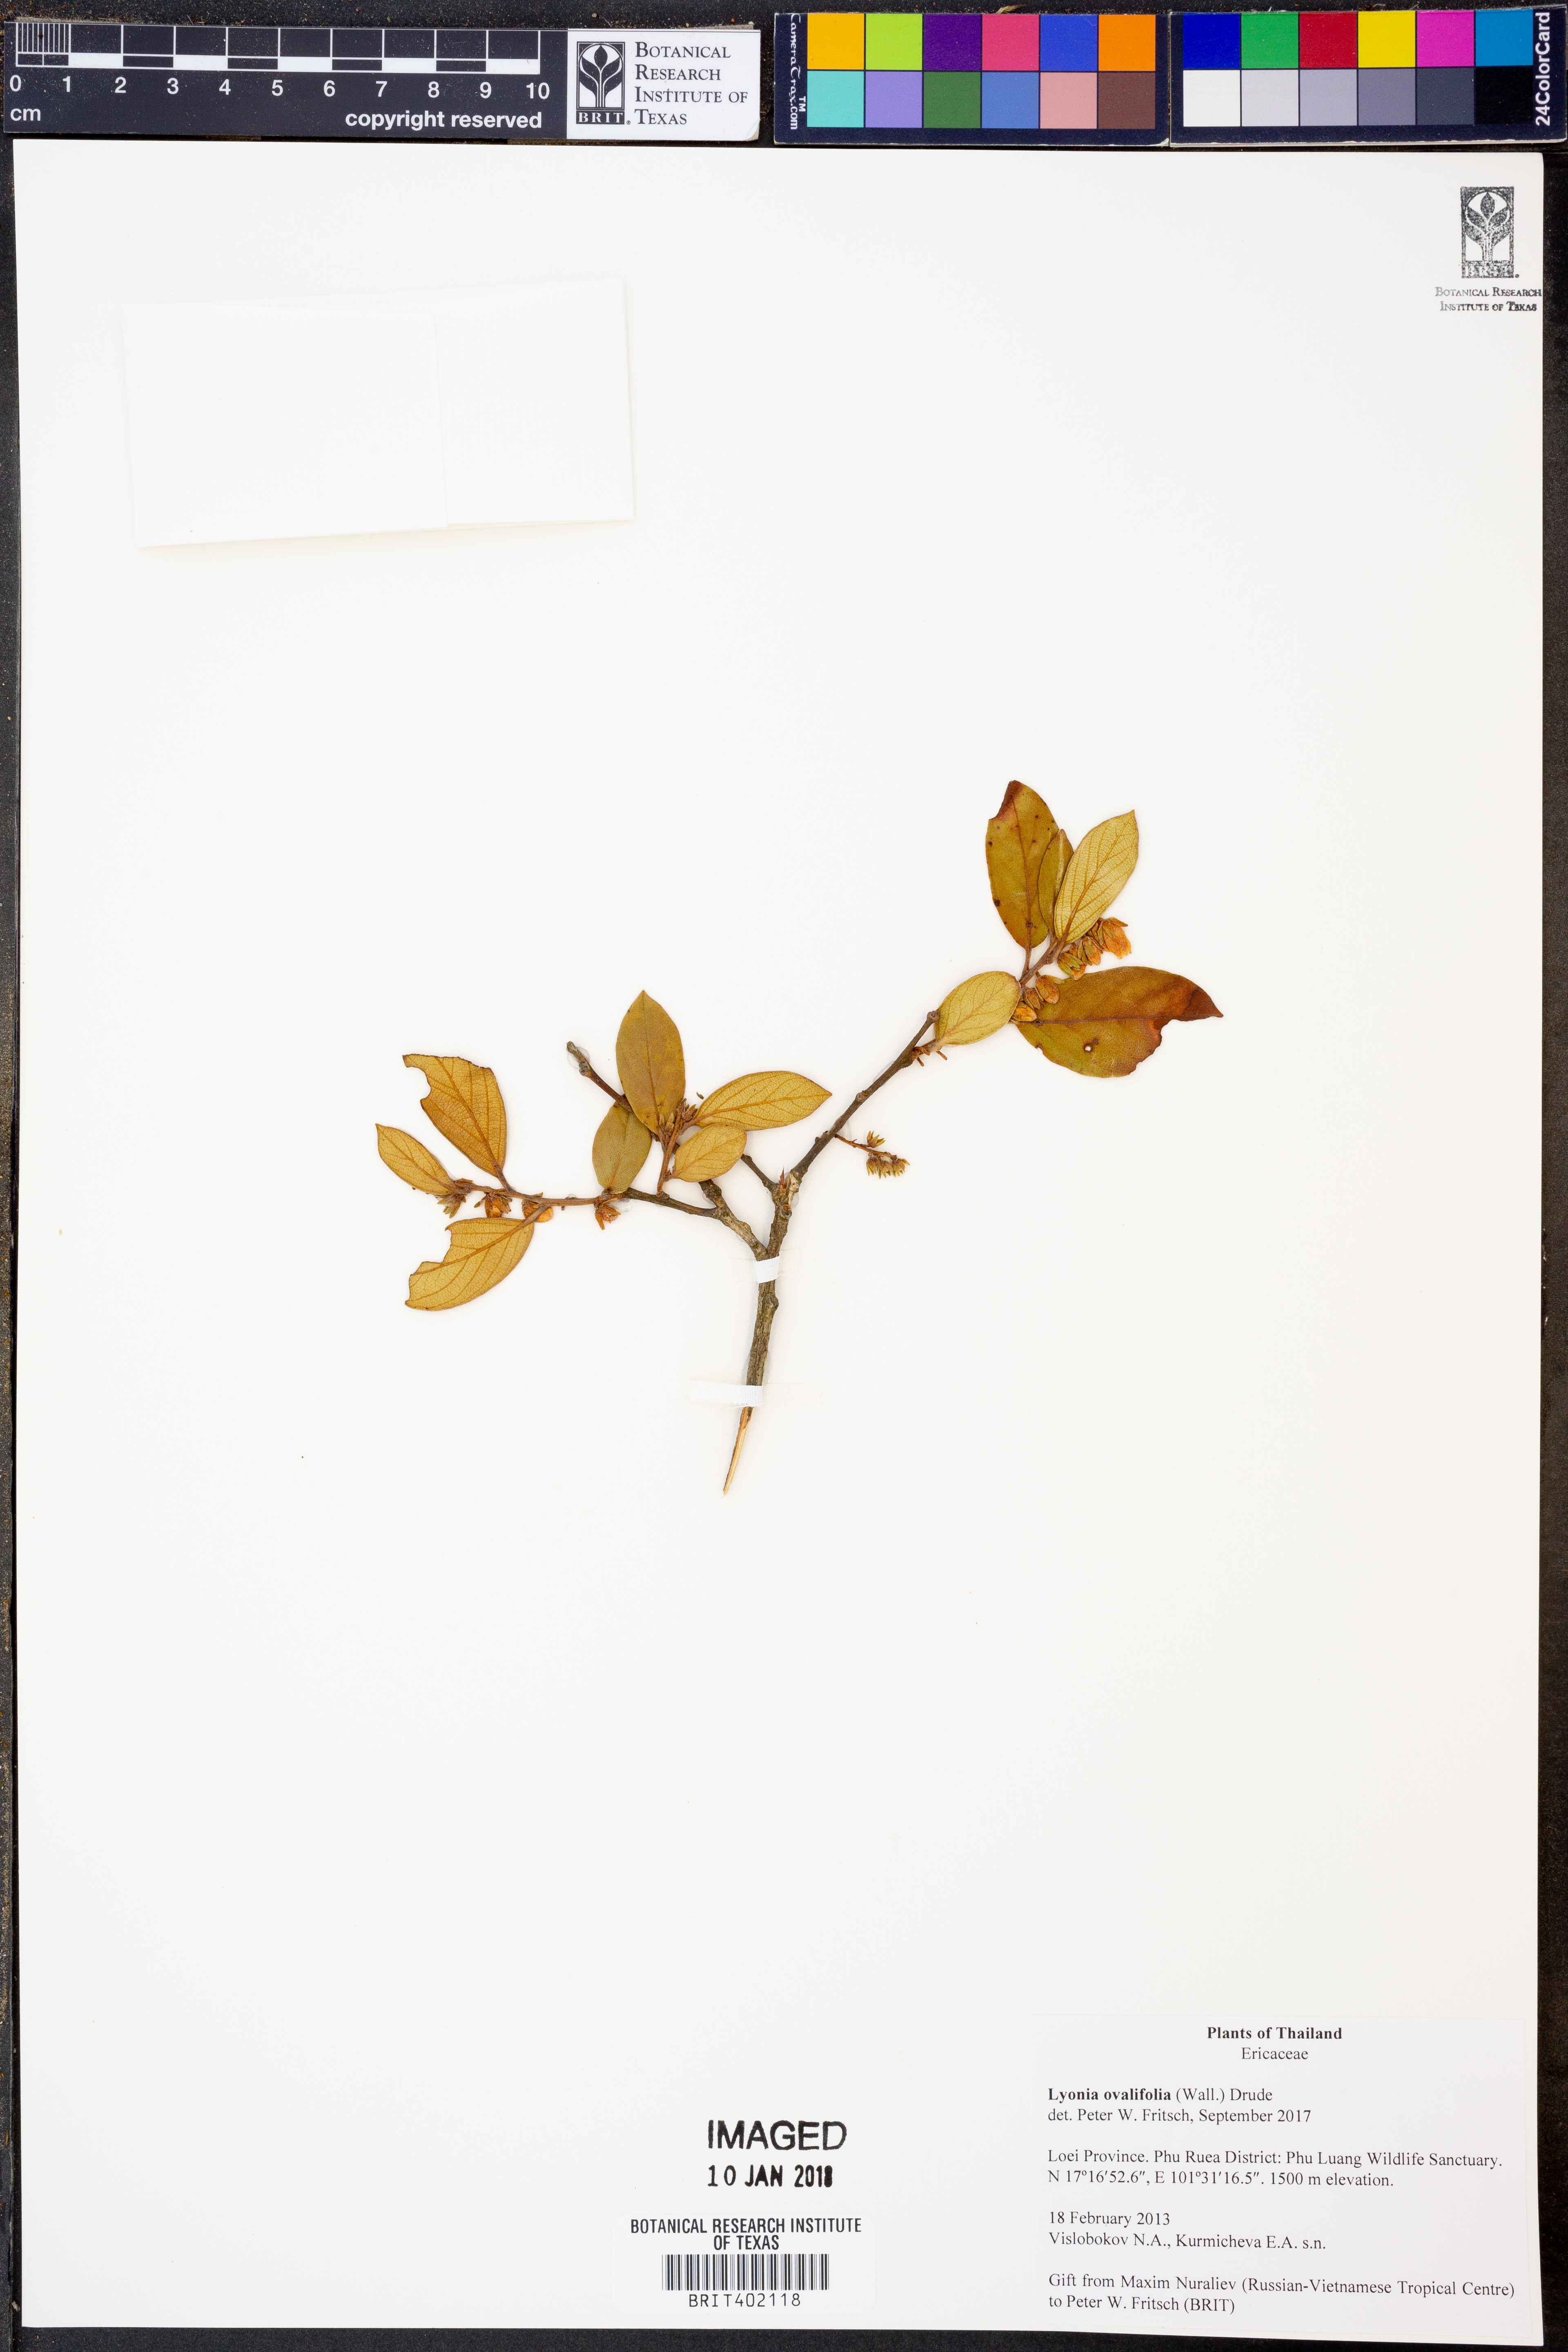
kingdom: Plantae
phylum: Tracheophyta
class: Magnoliopsida
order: Ericales
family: Ericaceae
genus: Lyonia
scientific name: Lyonia ovalifolia
